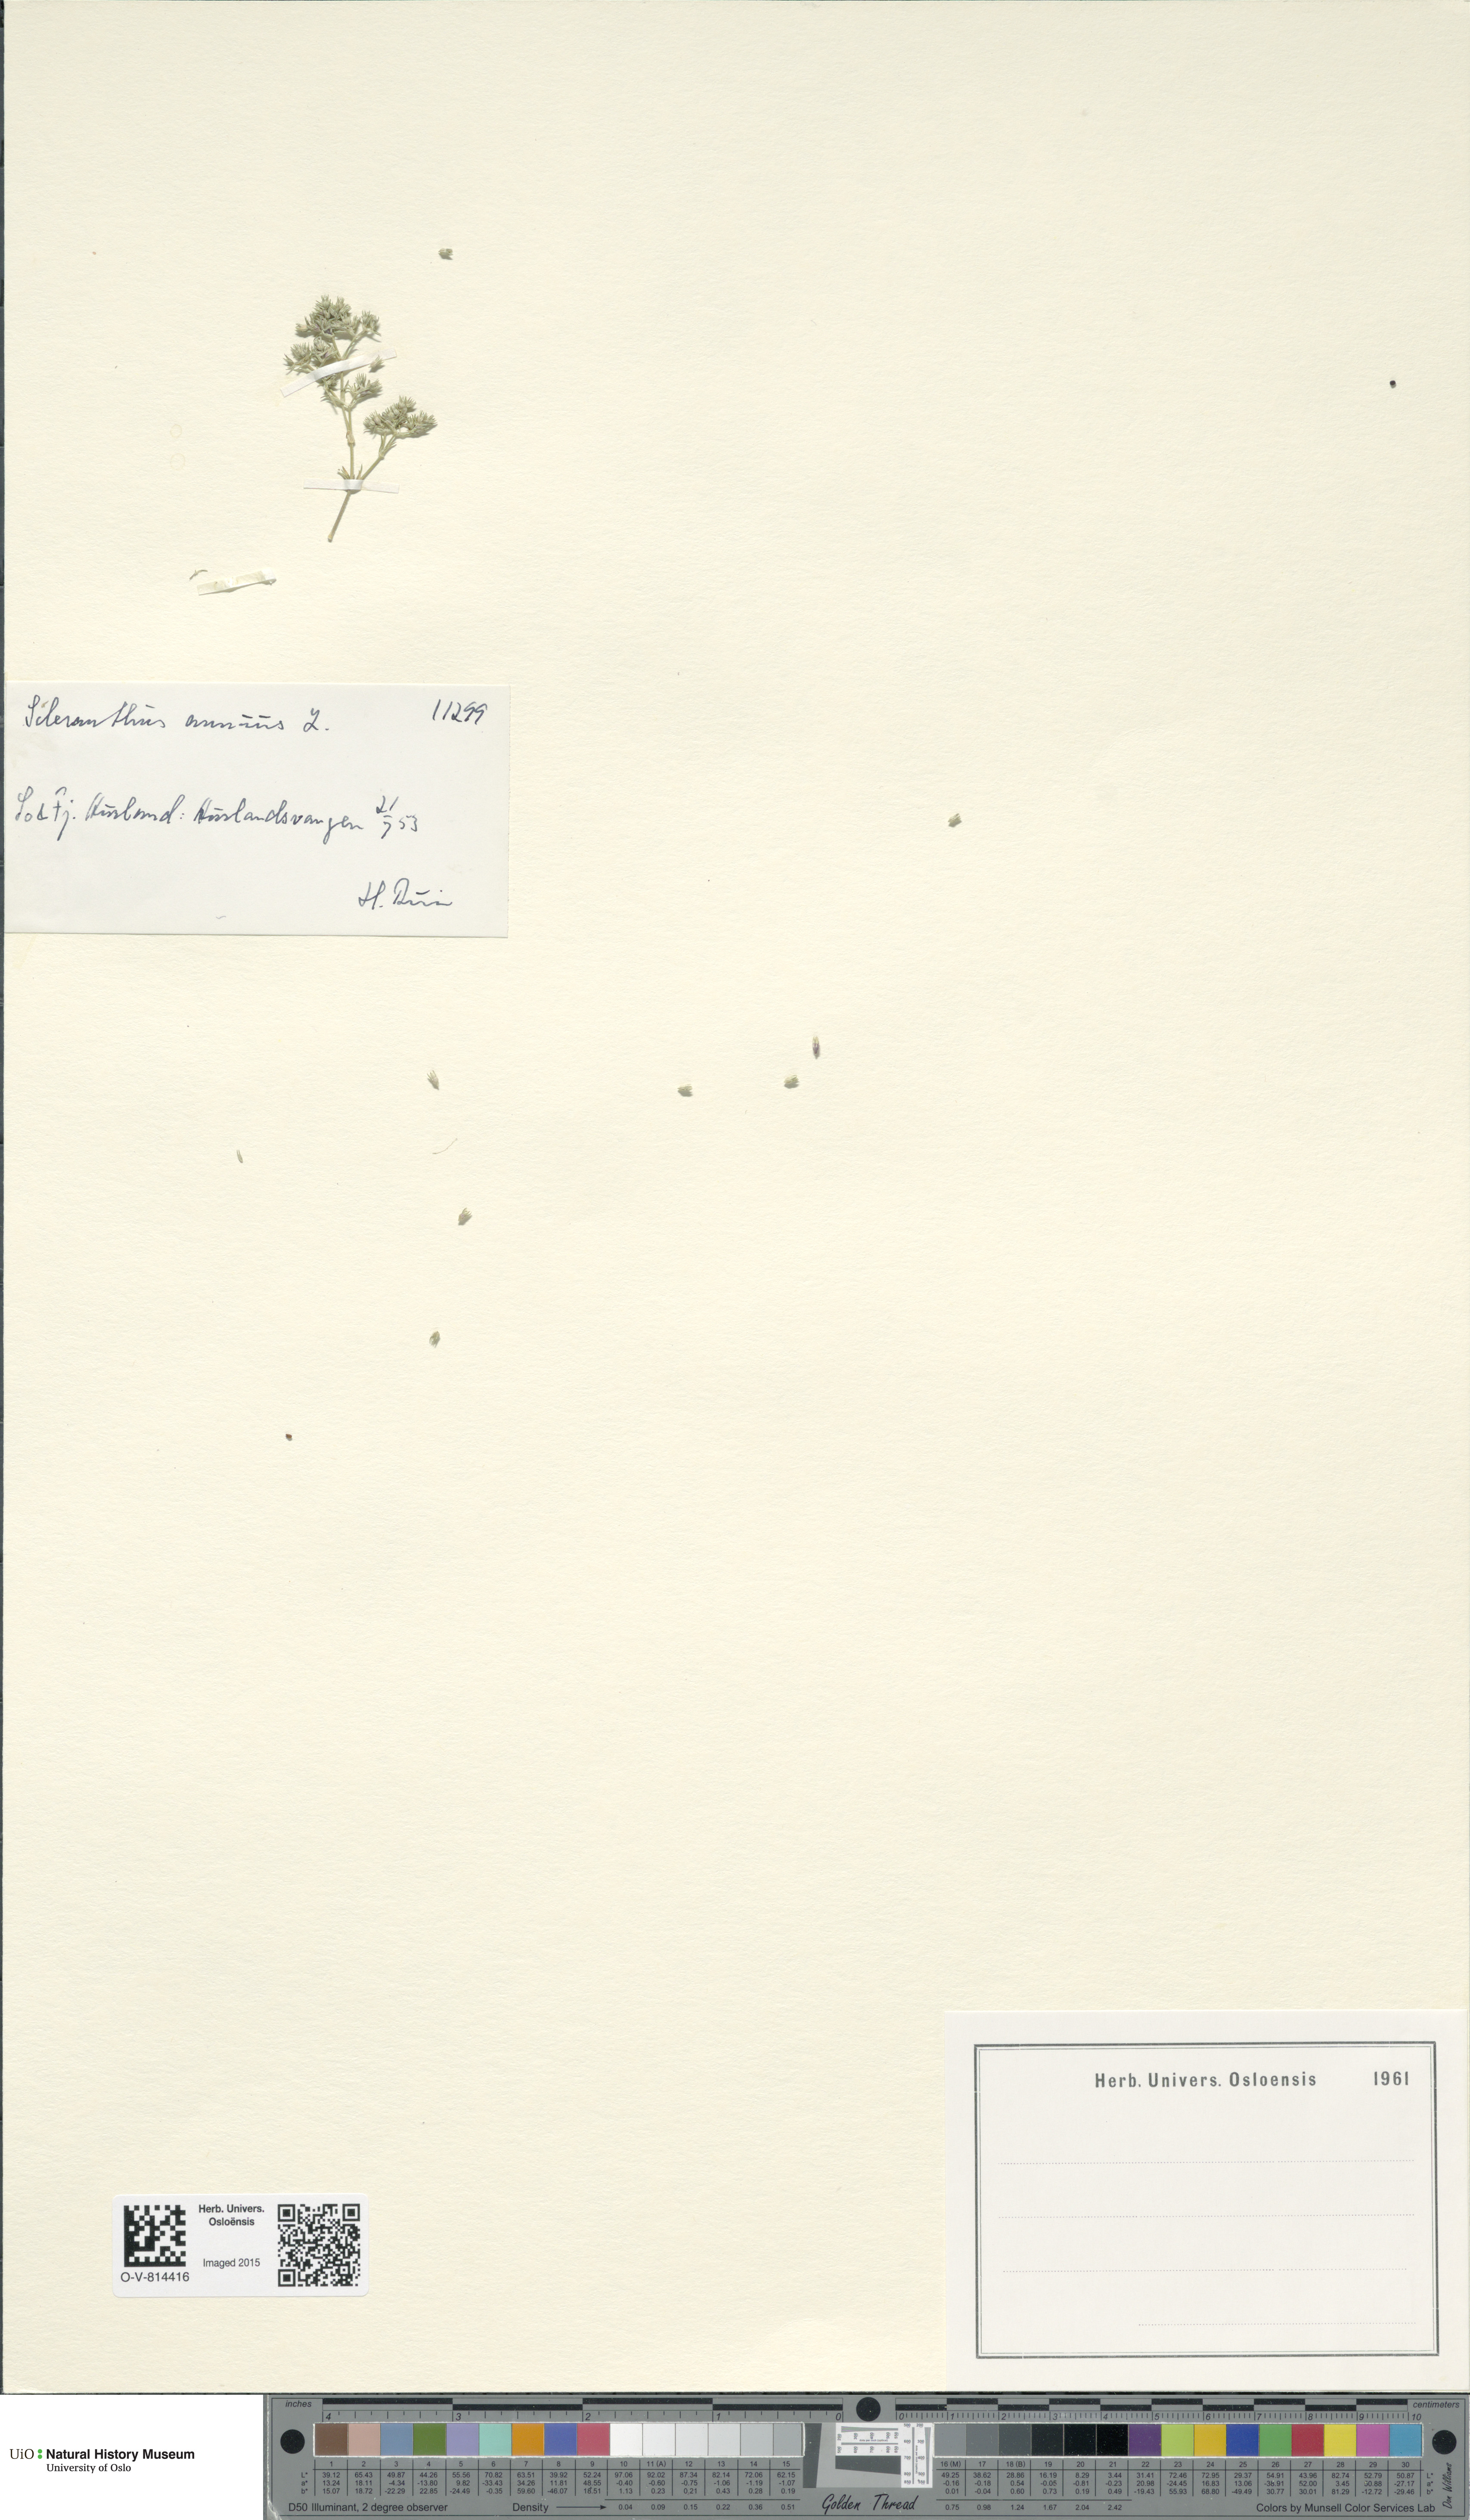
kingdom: Plantae
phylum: Tracheophyta
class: Magnoliopsida
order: Caryophyllales
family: Caryophyllaceae
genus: Scleranthus
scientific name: Scleranthus annuus
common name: Annual knawel
